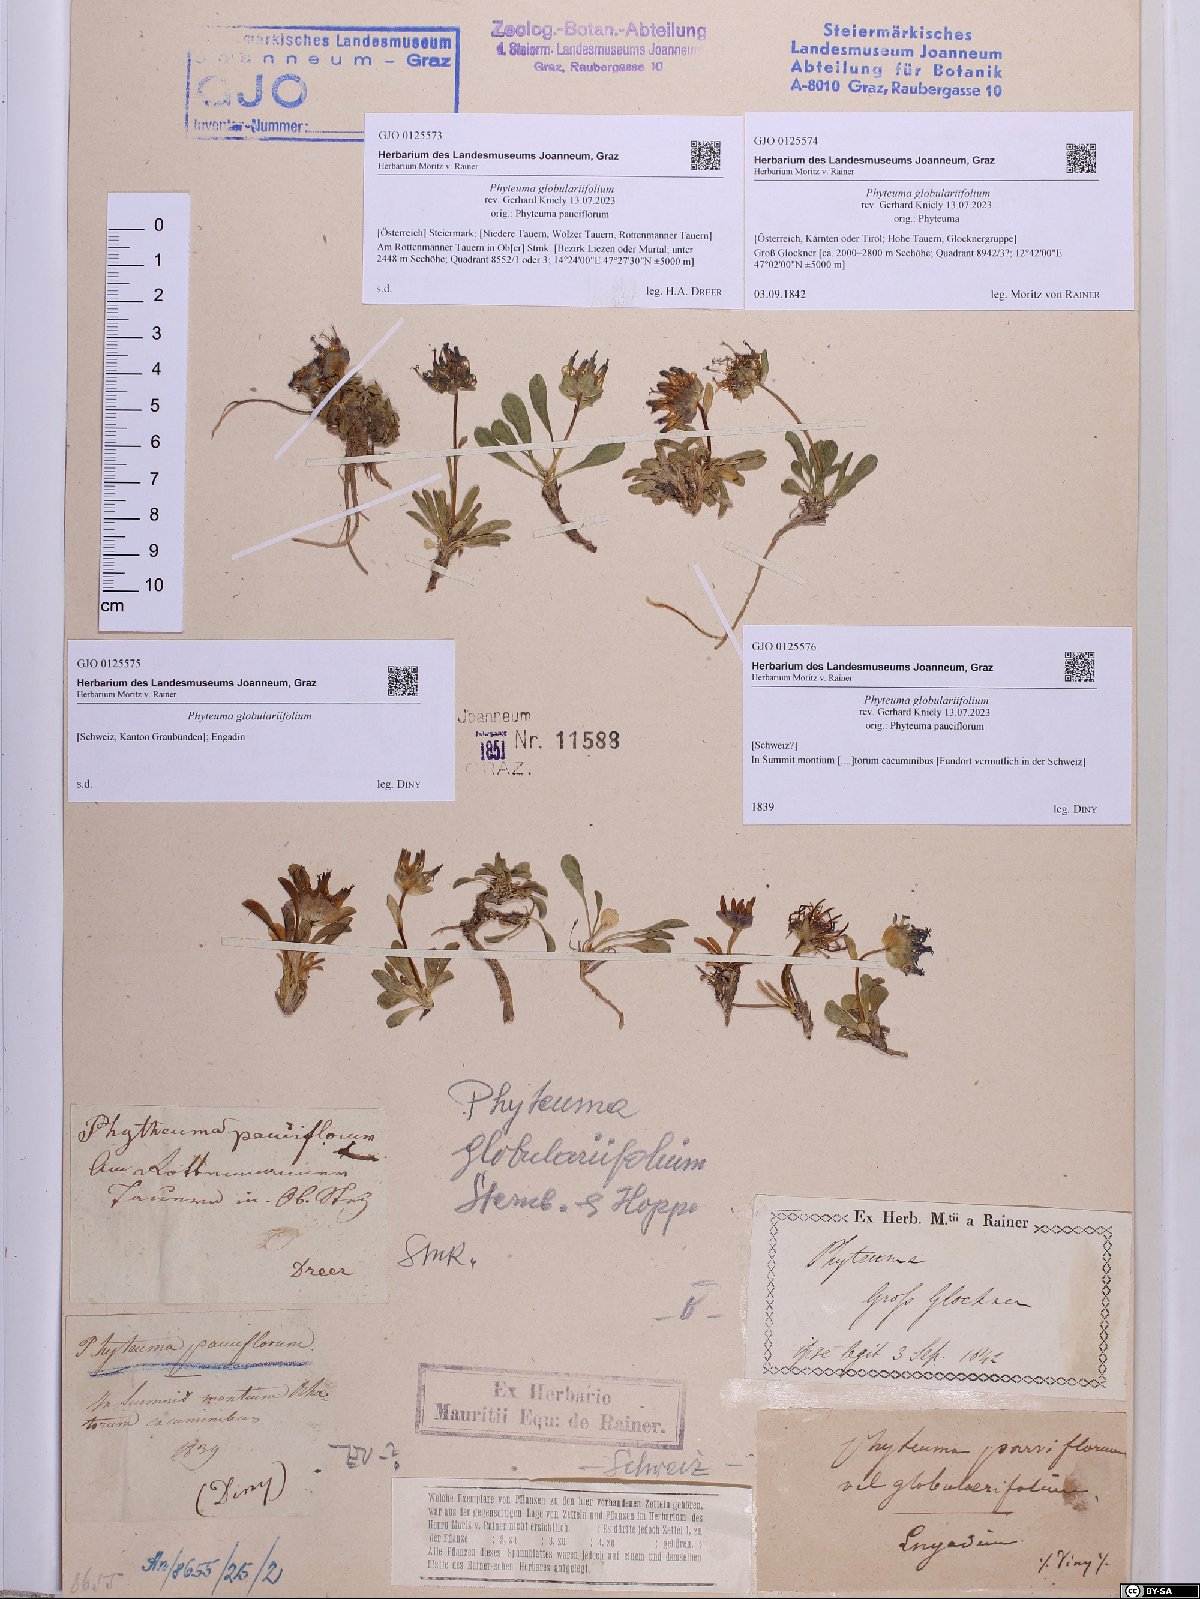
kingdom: Plantae
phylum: Tracheophyta
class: Magnoliopsida
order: Asterales
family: Campanulaceae
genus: Phyteuma
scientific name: Phyteuma globulariifolium
